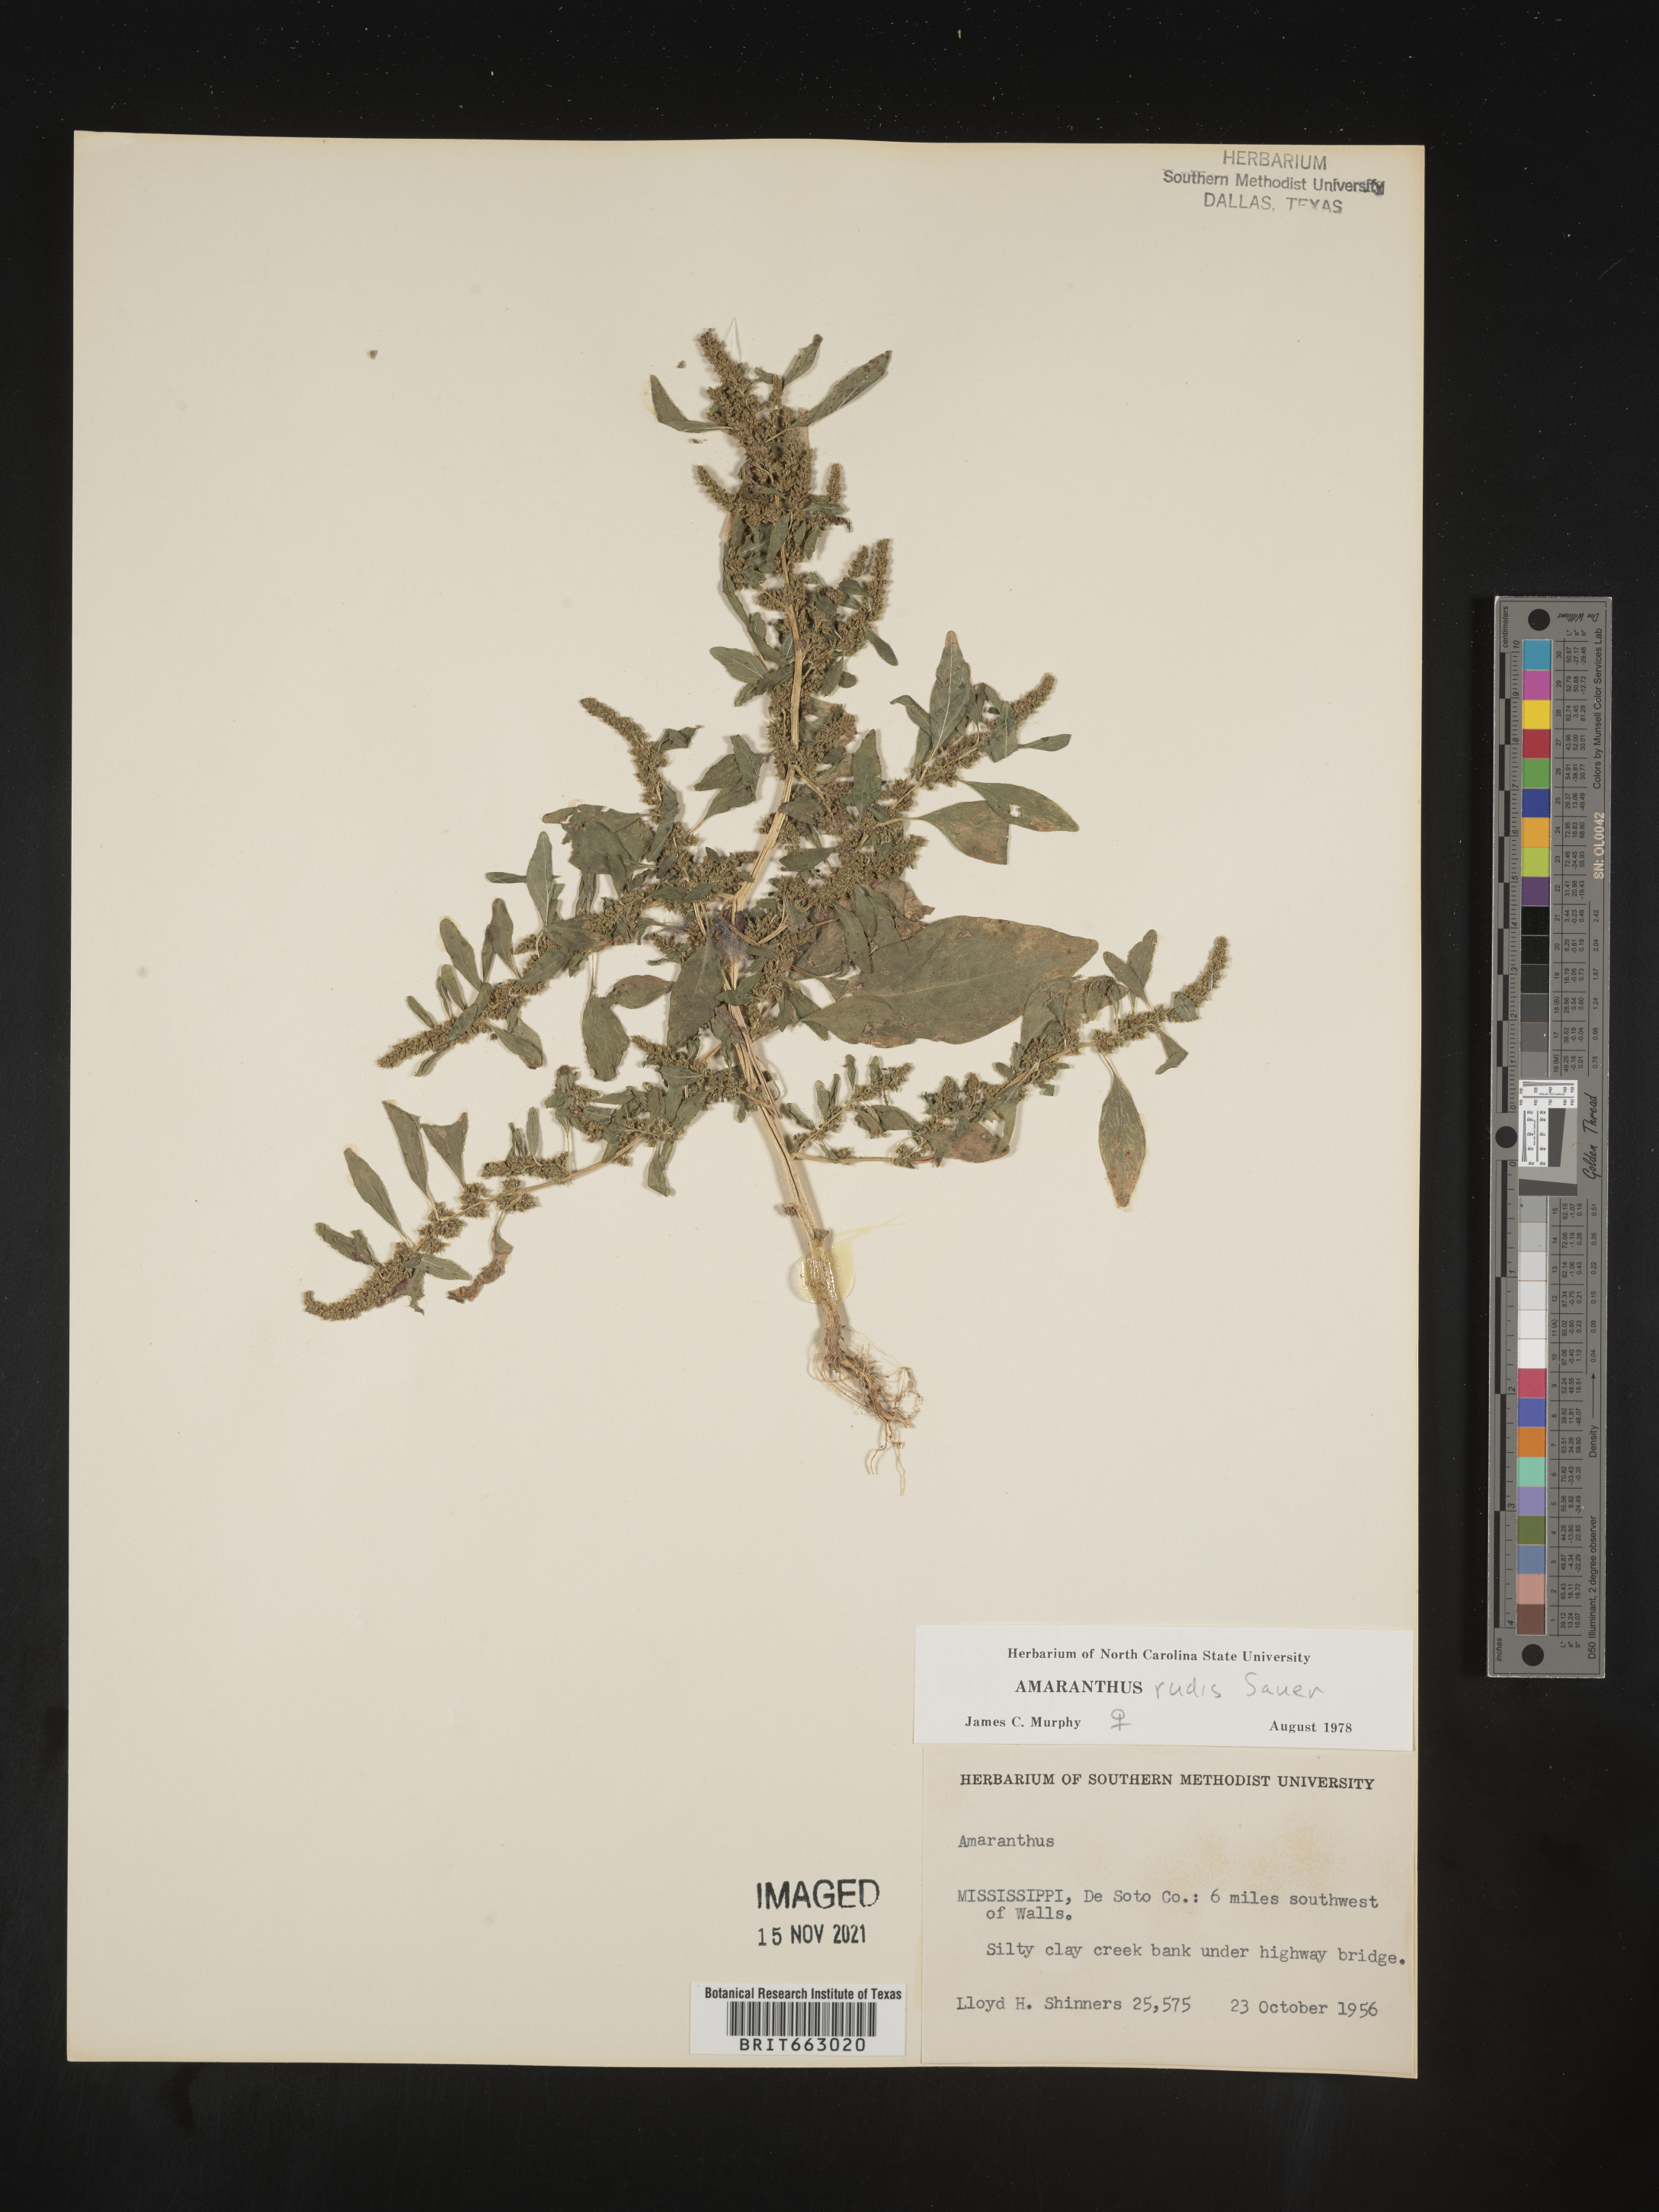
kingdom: Plantae
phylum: Tracheophyta
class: Magnoliopsida
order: Caryophyllales
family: Amaranthaceae
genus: Amaranthus
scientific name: Amaranthus tuberculatus
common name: Rough-fruit amaranth
